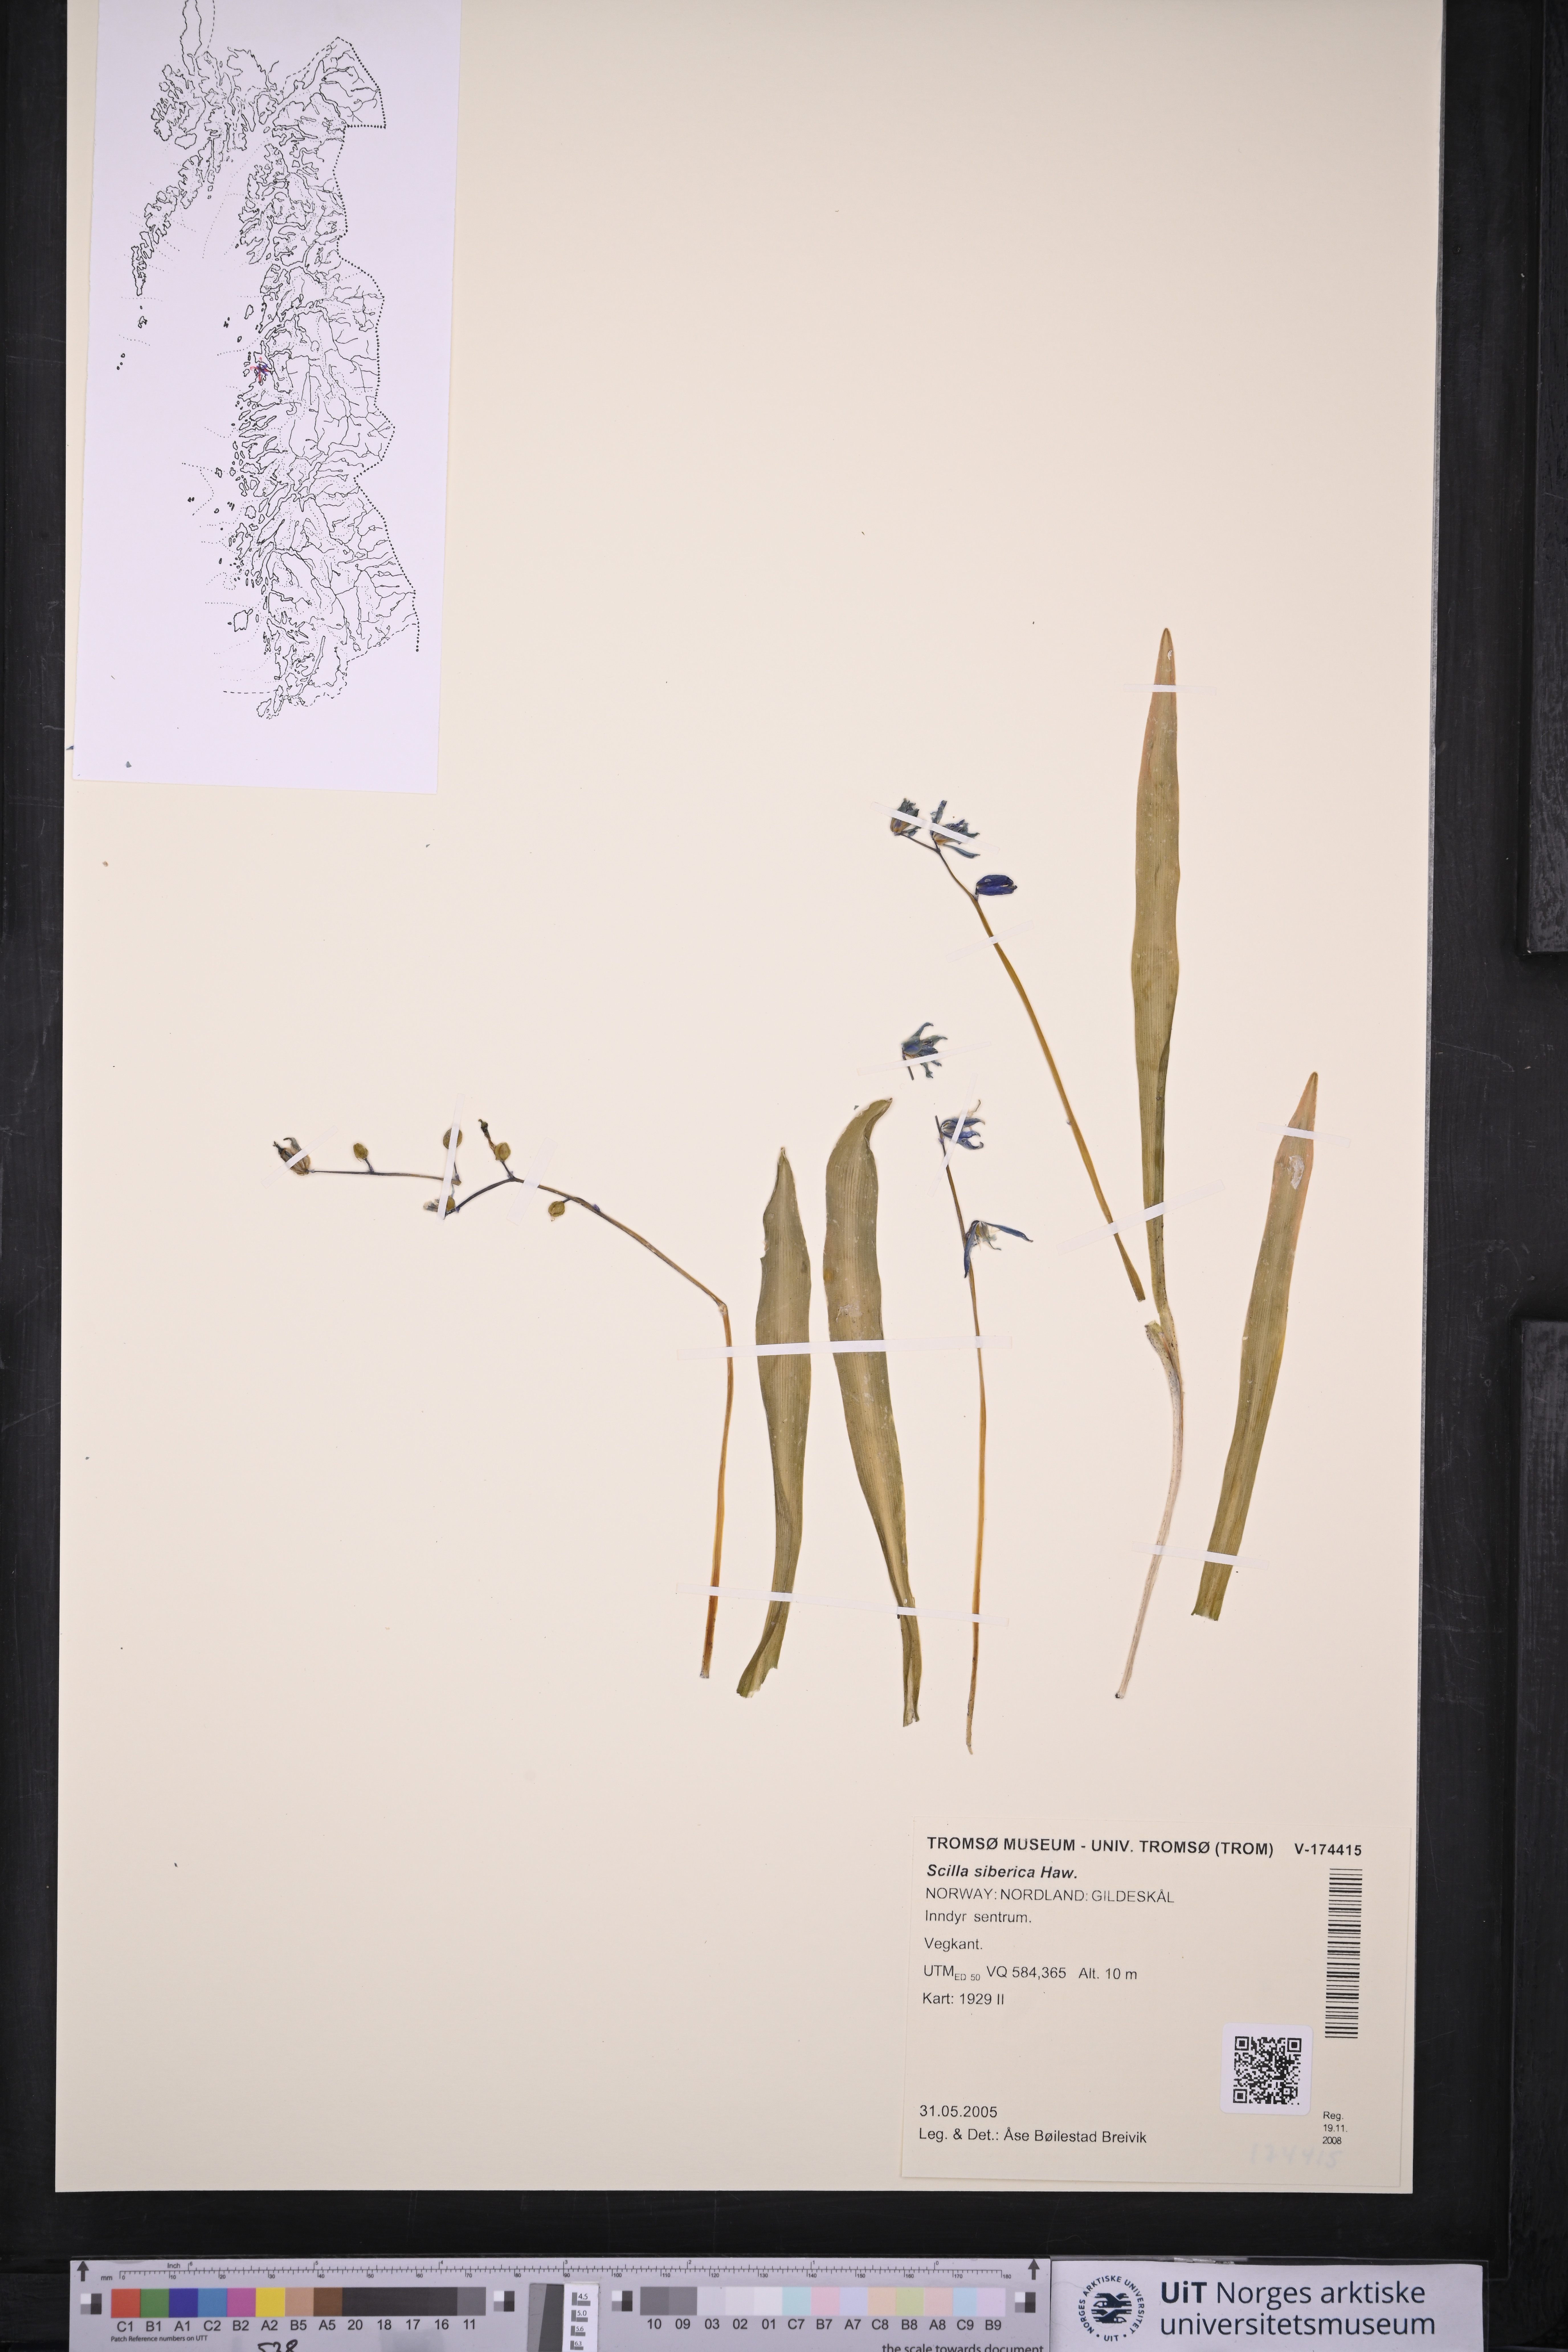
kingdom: Plantae
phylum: Tracheophyta
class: Liliopsida
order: Asparagales
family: Asparagaceae
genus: Scilla
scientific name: Scilla siberica
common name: Siberian squill
